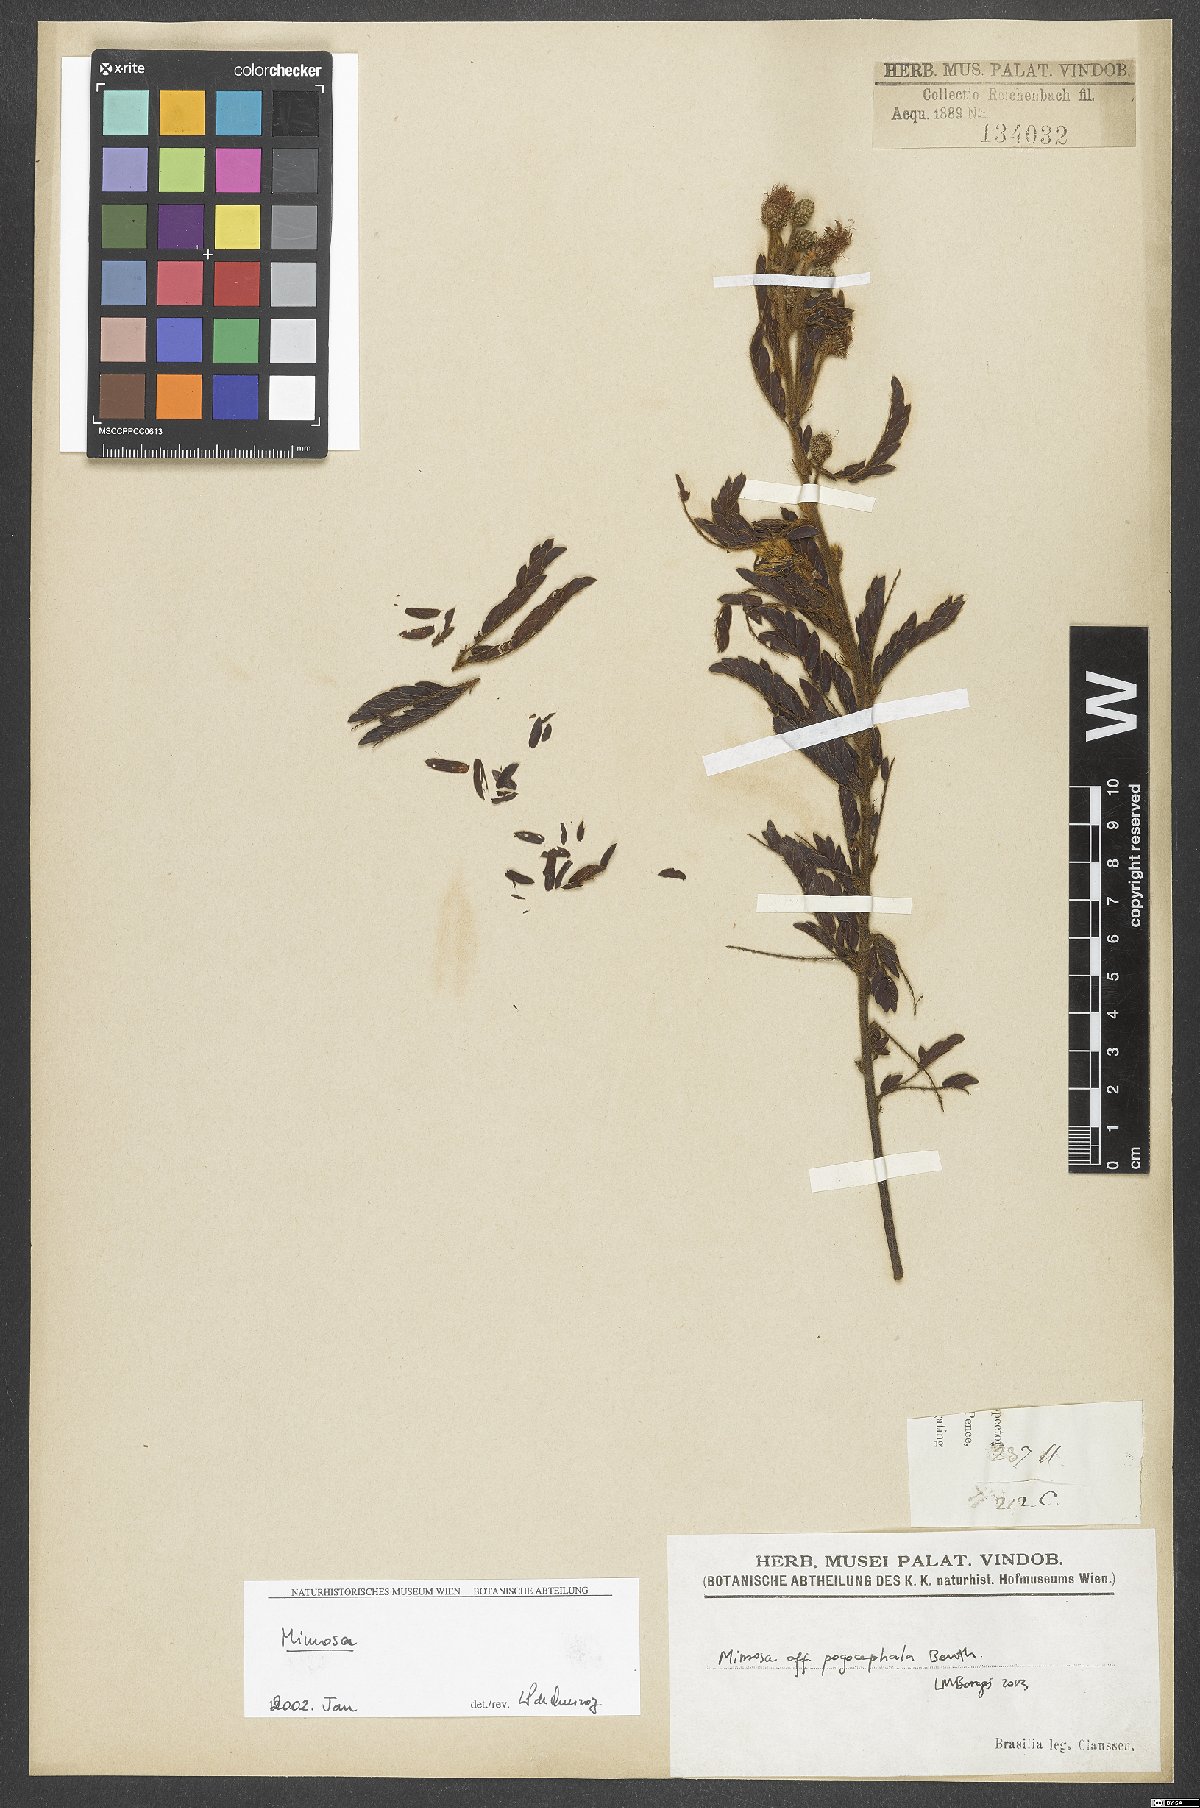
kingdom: Plantae
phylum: Tracheophyta
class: Magnoliopsida
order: Fabales
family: Fabaceae
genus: Mimosa
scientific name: Mimosa pogocephala
